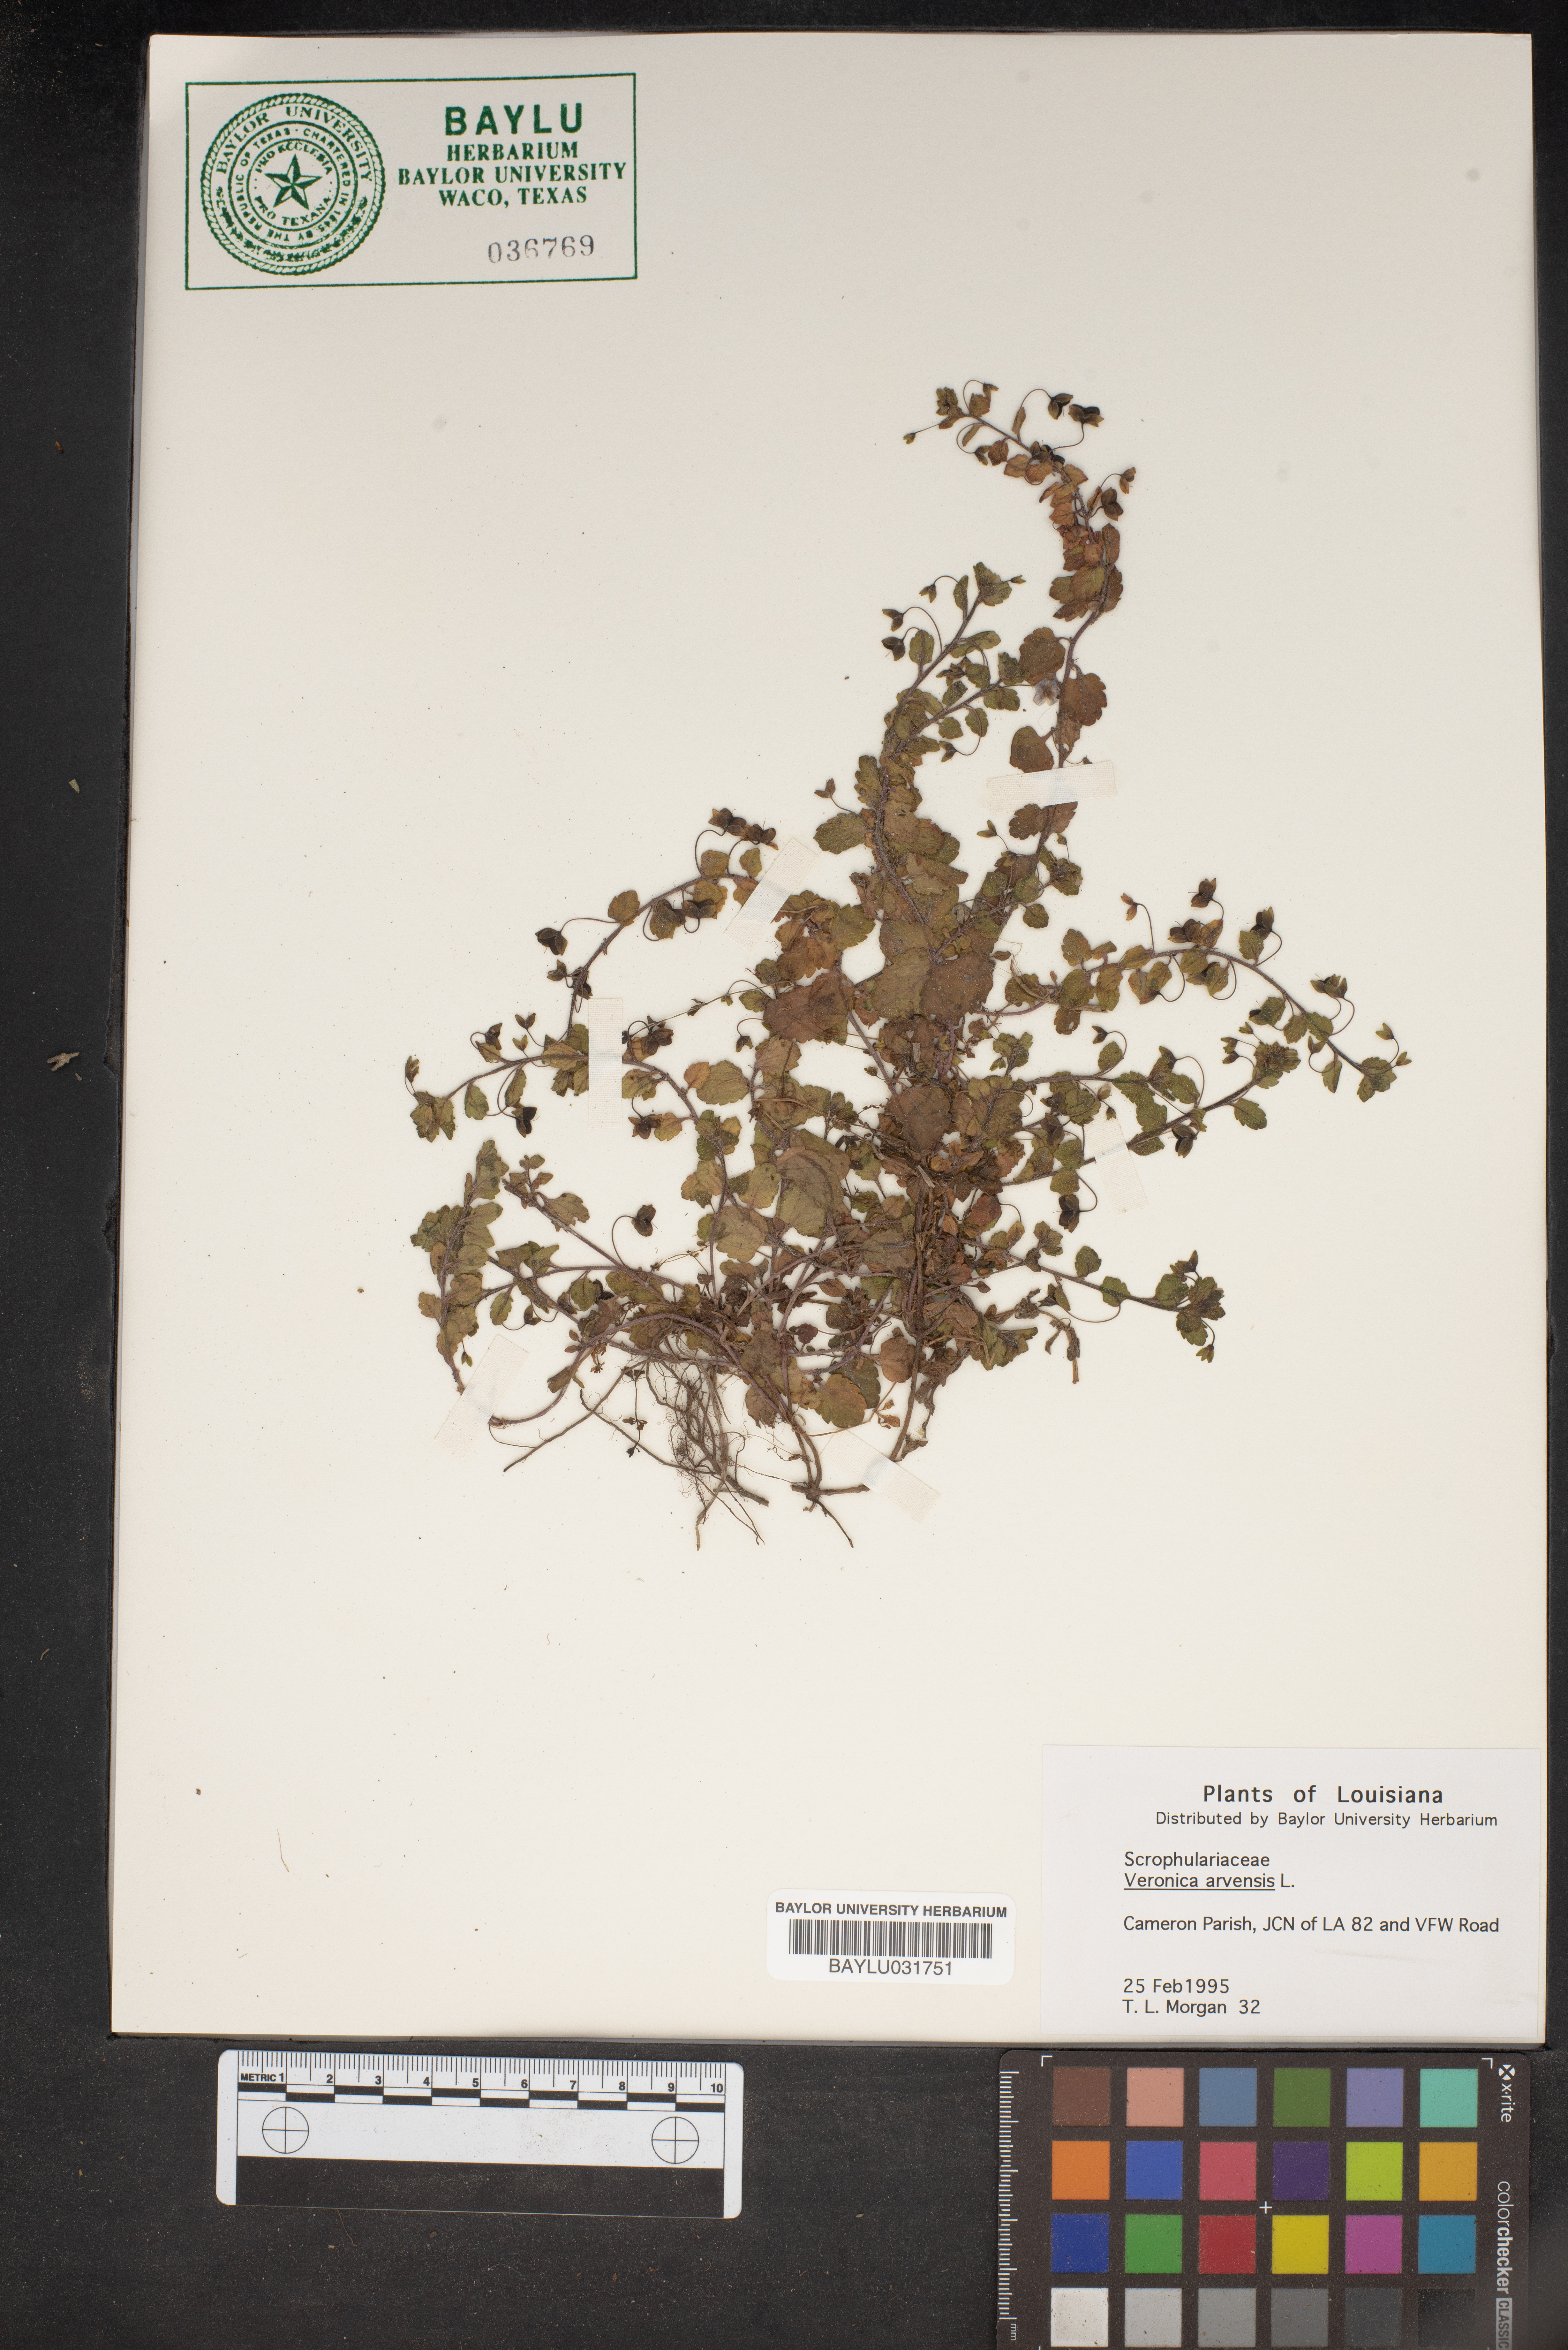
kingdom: Plantae
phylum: Tracheophyta
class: Magnoliopsida
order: Lamiales
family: Plantaginaceae
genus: Veronica
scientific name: Veronica arvensis
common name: Corn speedwell
